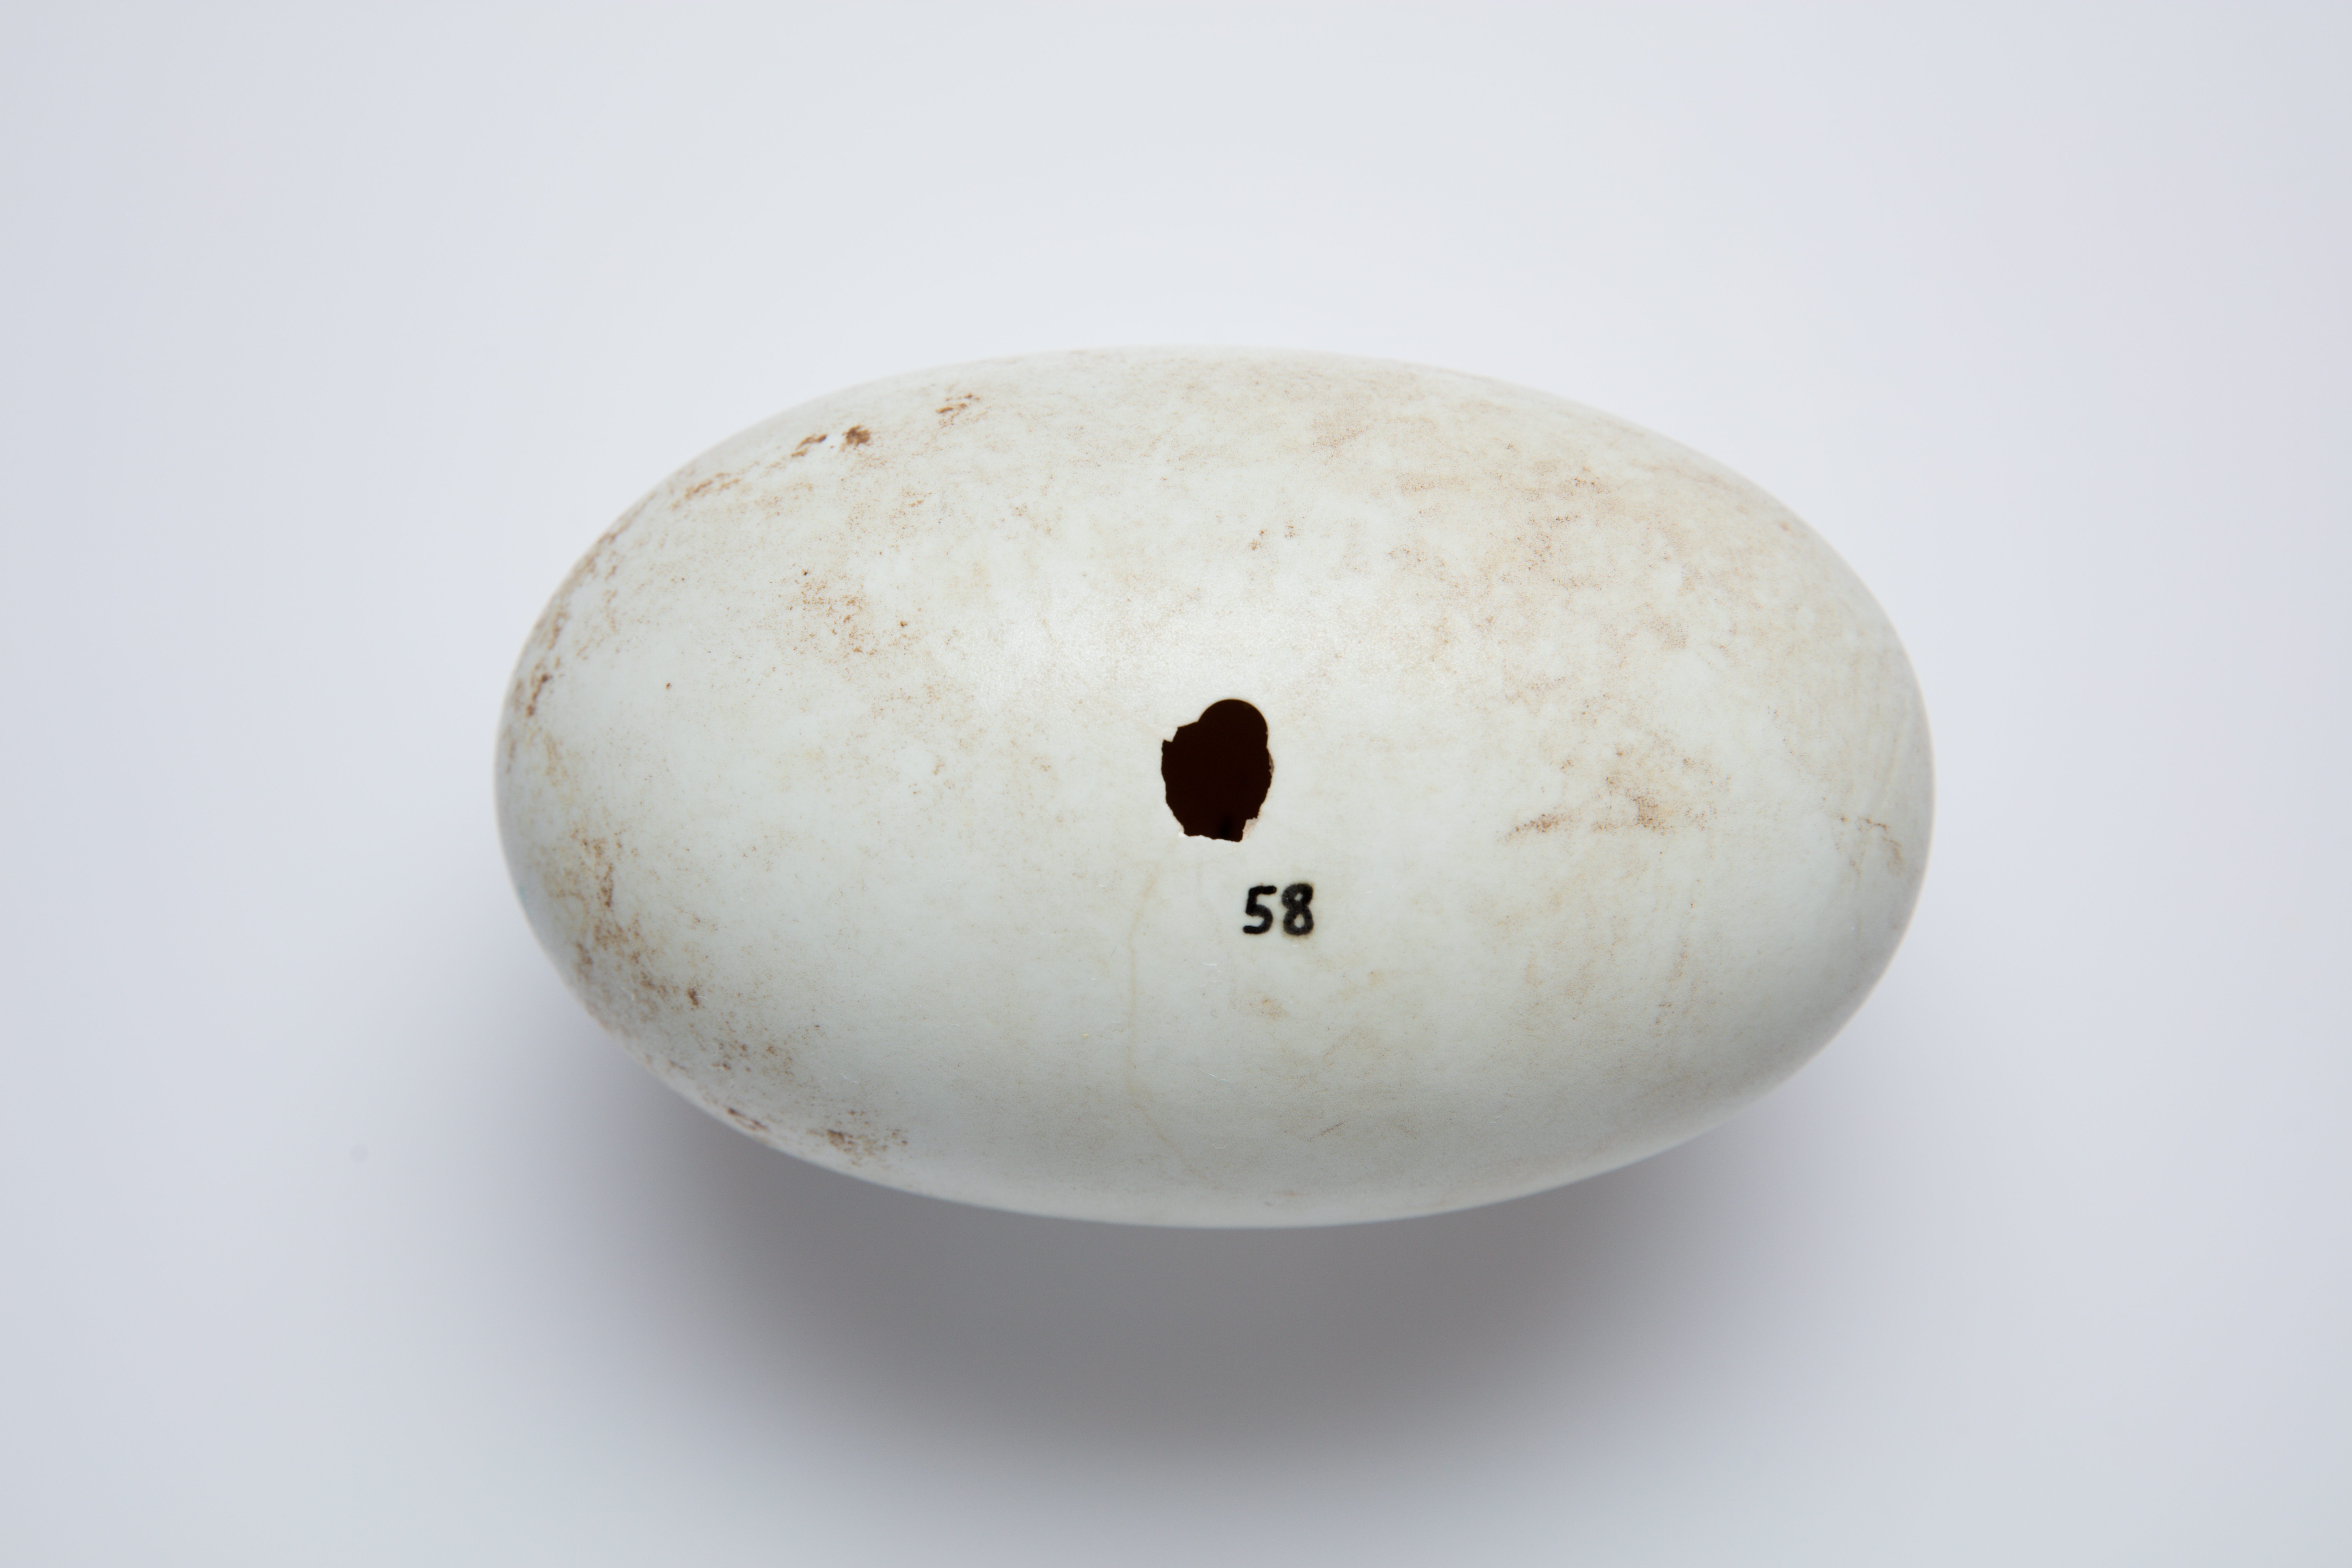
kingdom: Animalia
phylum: Chordata
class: Aves
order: Apterygiformes
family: Apterygidae
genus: Apteryx
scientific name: Apteryx mantelli
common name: North island brown kiwi
